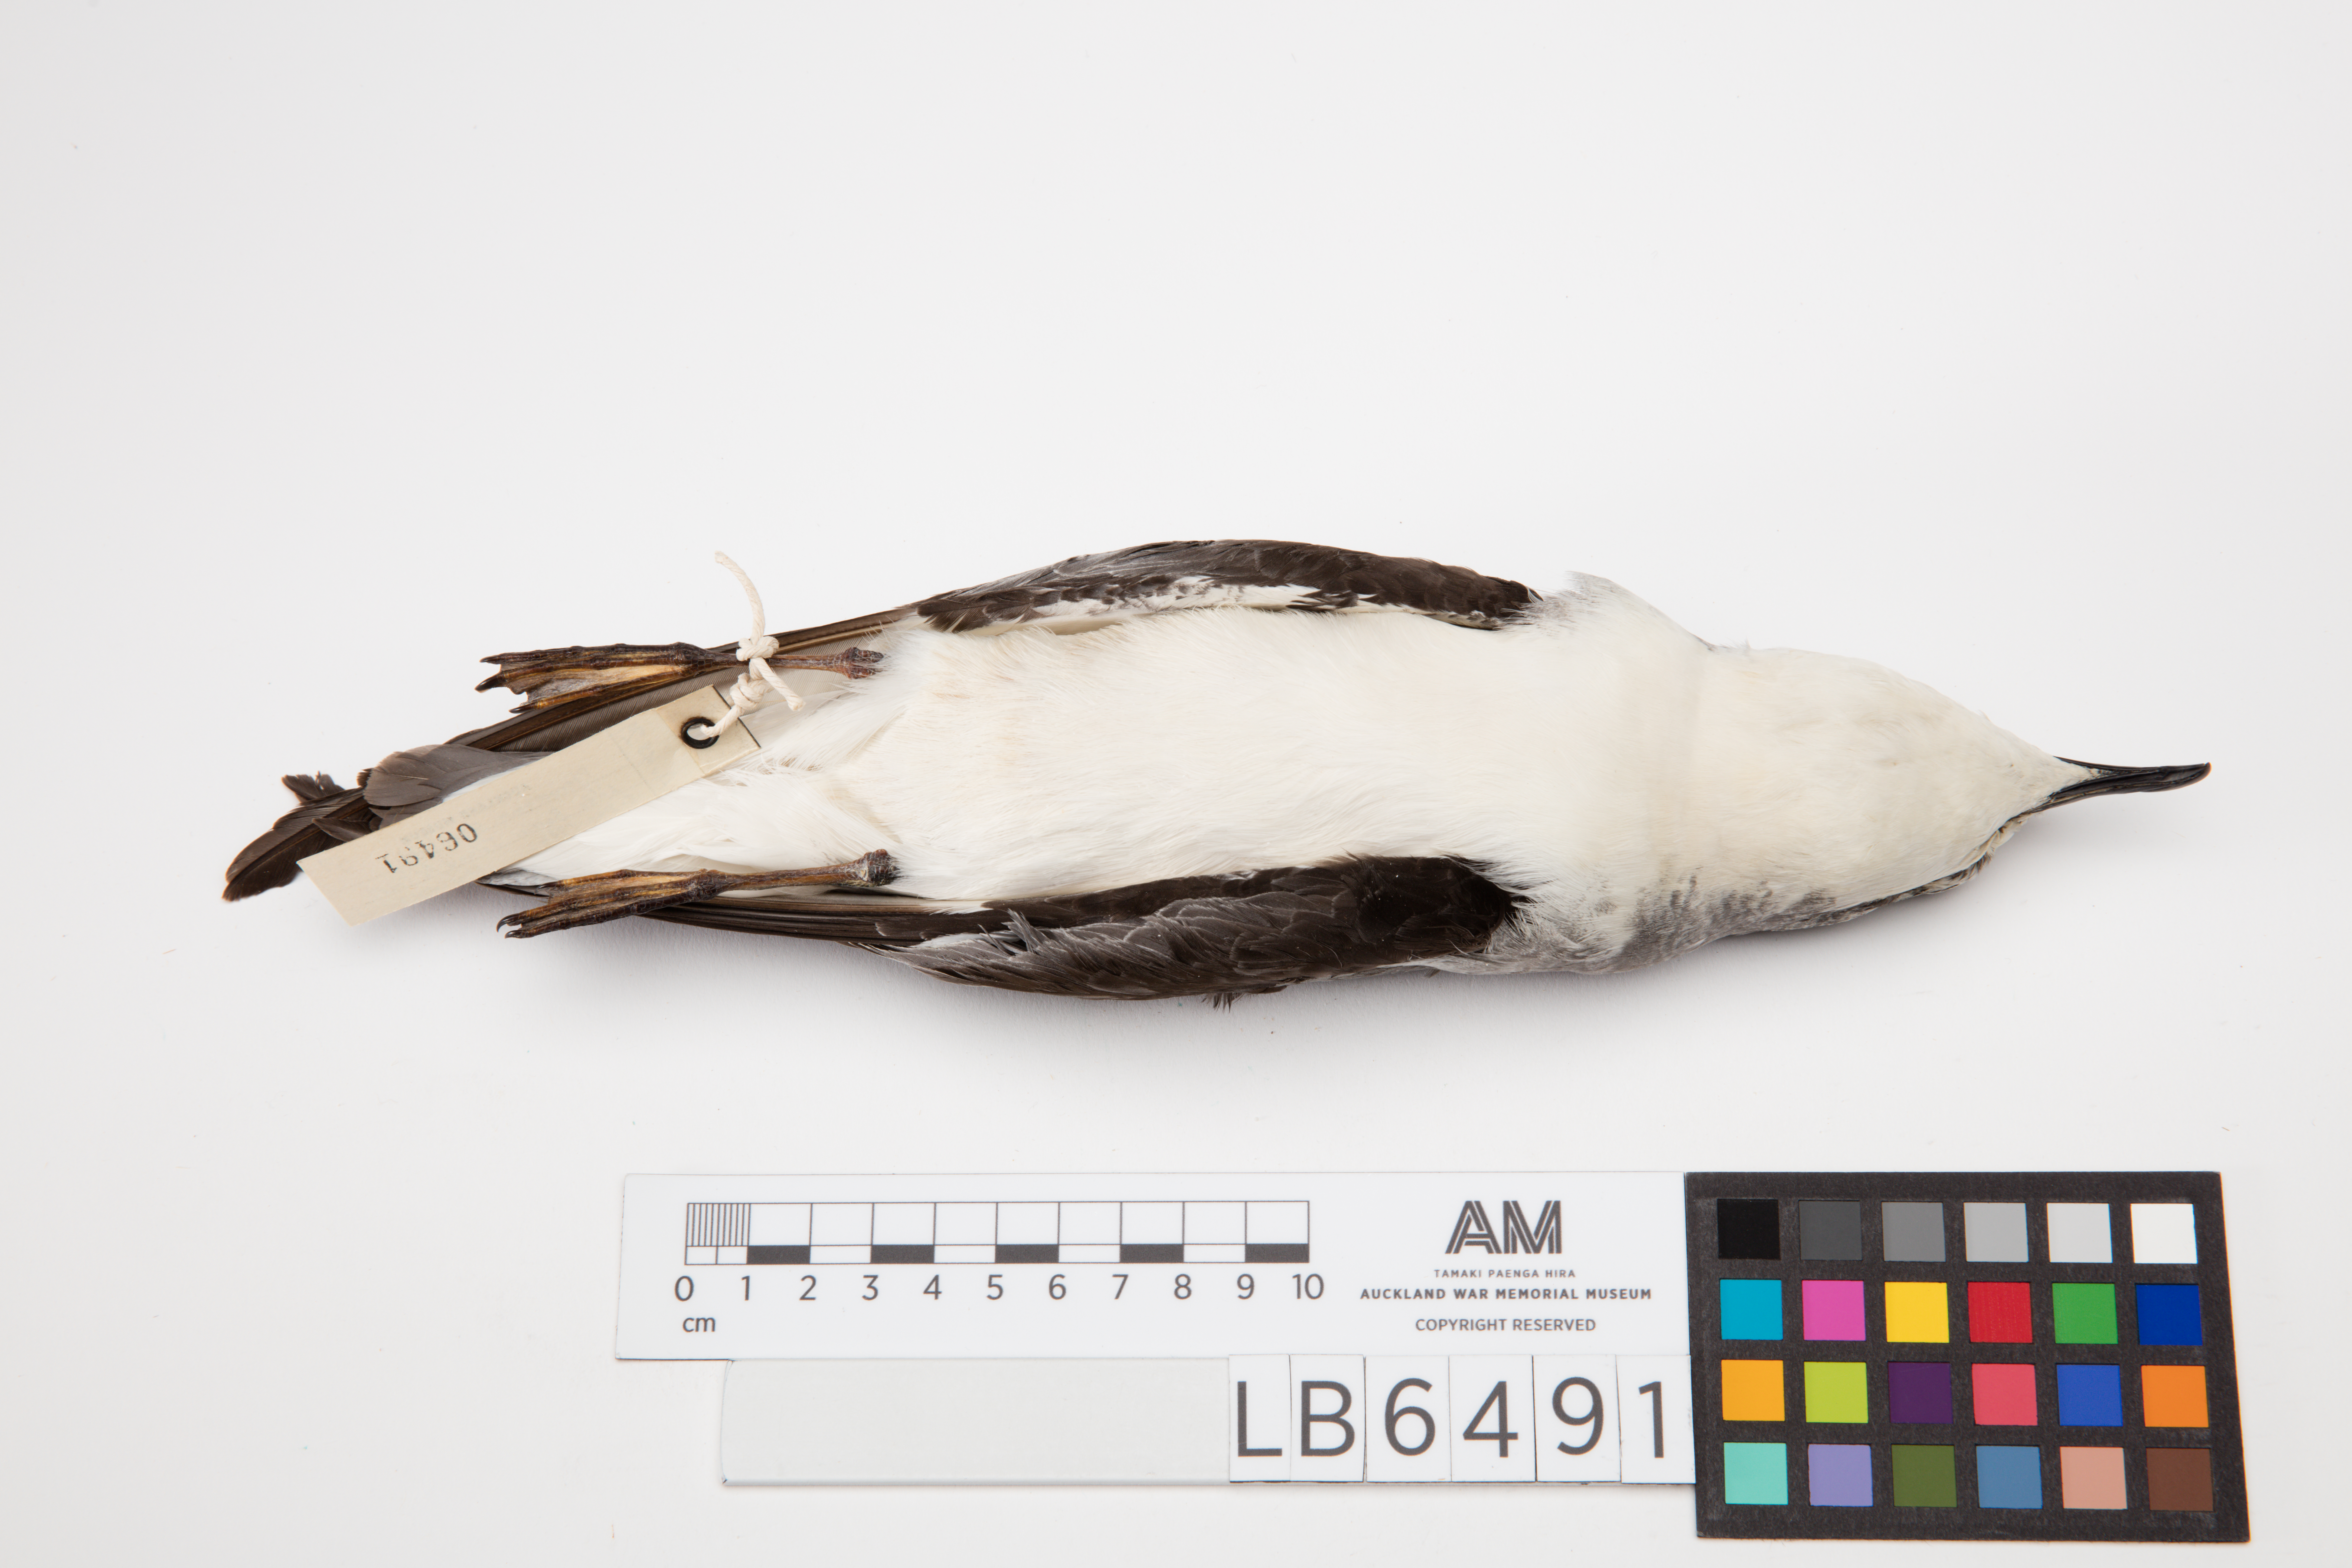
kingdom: Animalia
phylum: Chordata
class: Aves
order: Procellariiformes
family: Procellariidae
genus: Pterodroma
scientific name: Pterodroma cookii
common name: Cook's petrel
